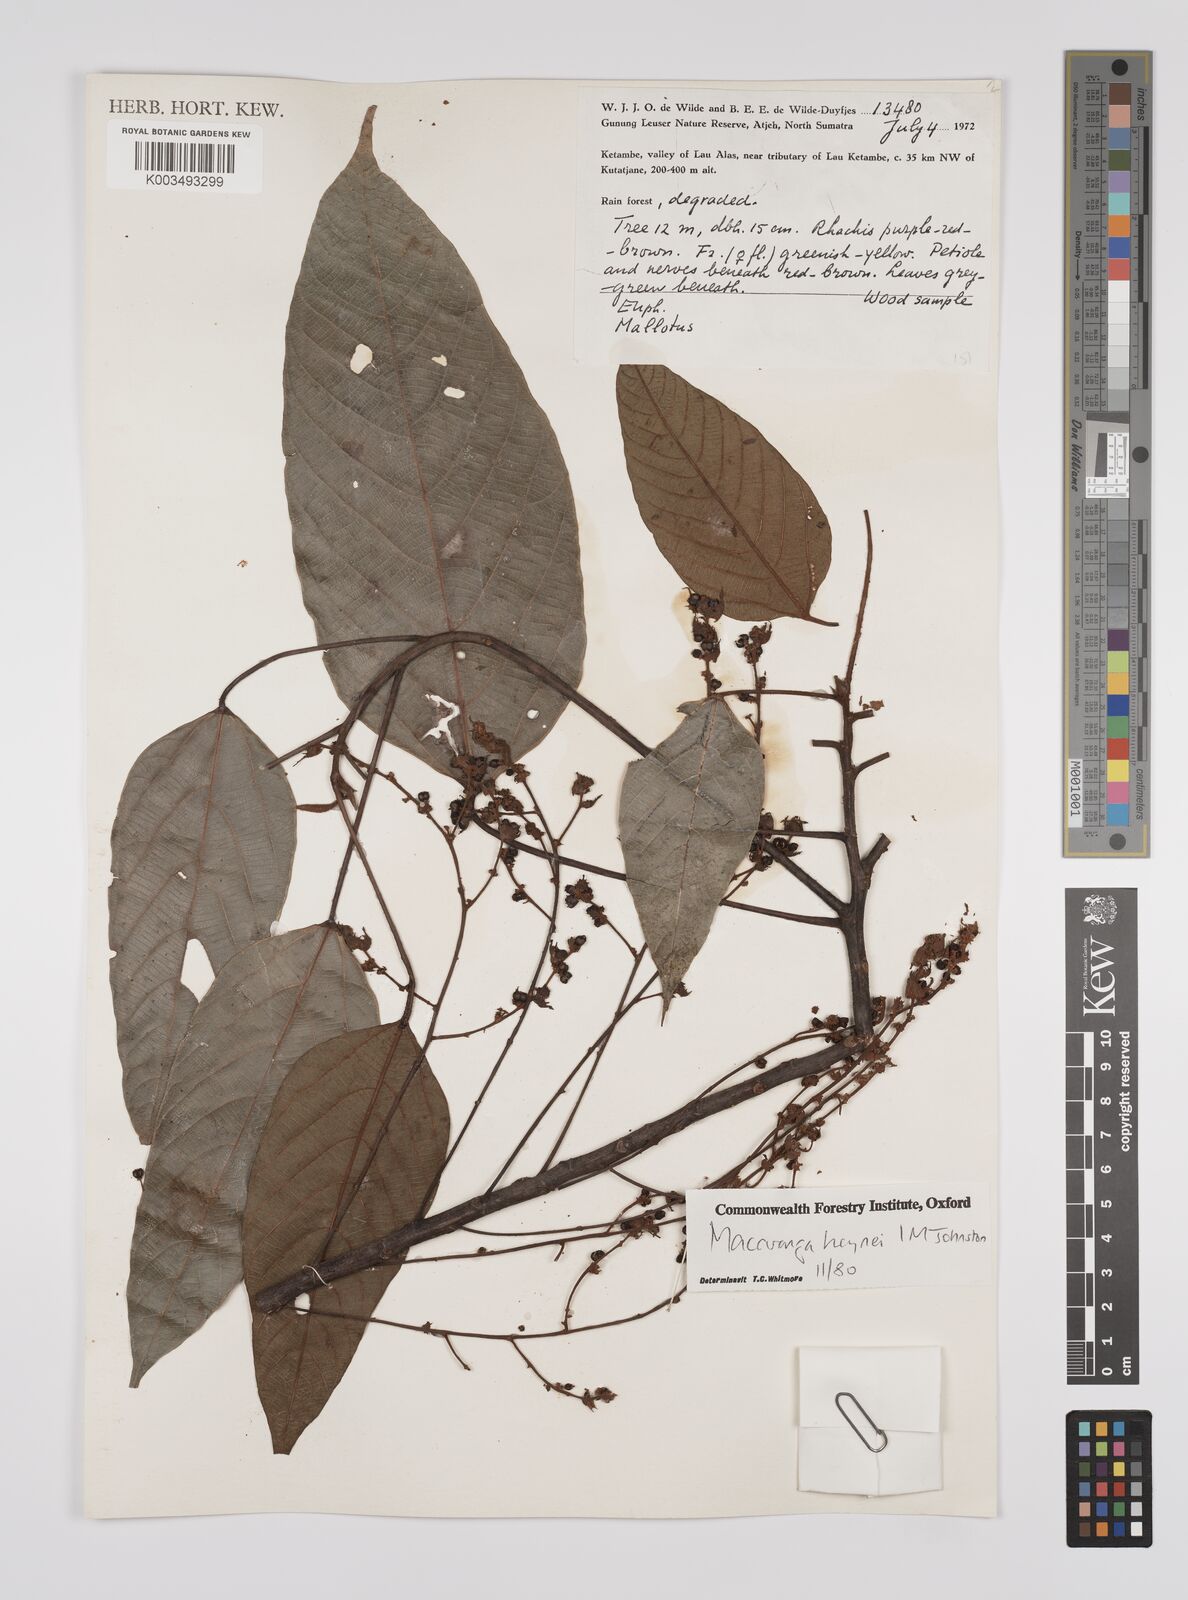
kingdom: Plantae
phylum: Tracheophyta
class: Magnoliopsida
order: Malpighiales
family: Euphorbiaceae
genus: Macaranga
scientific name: Macaranga heynei
